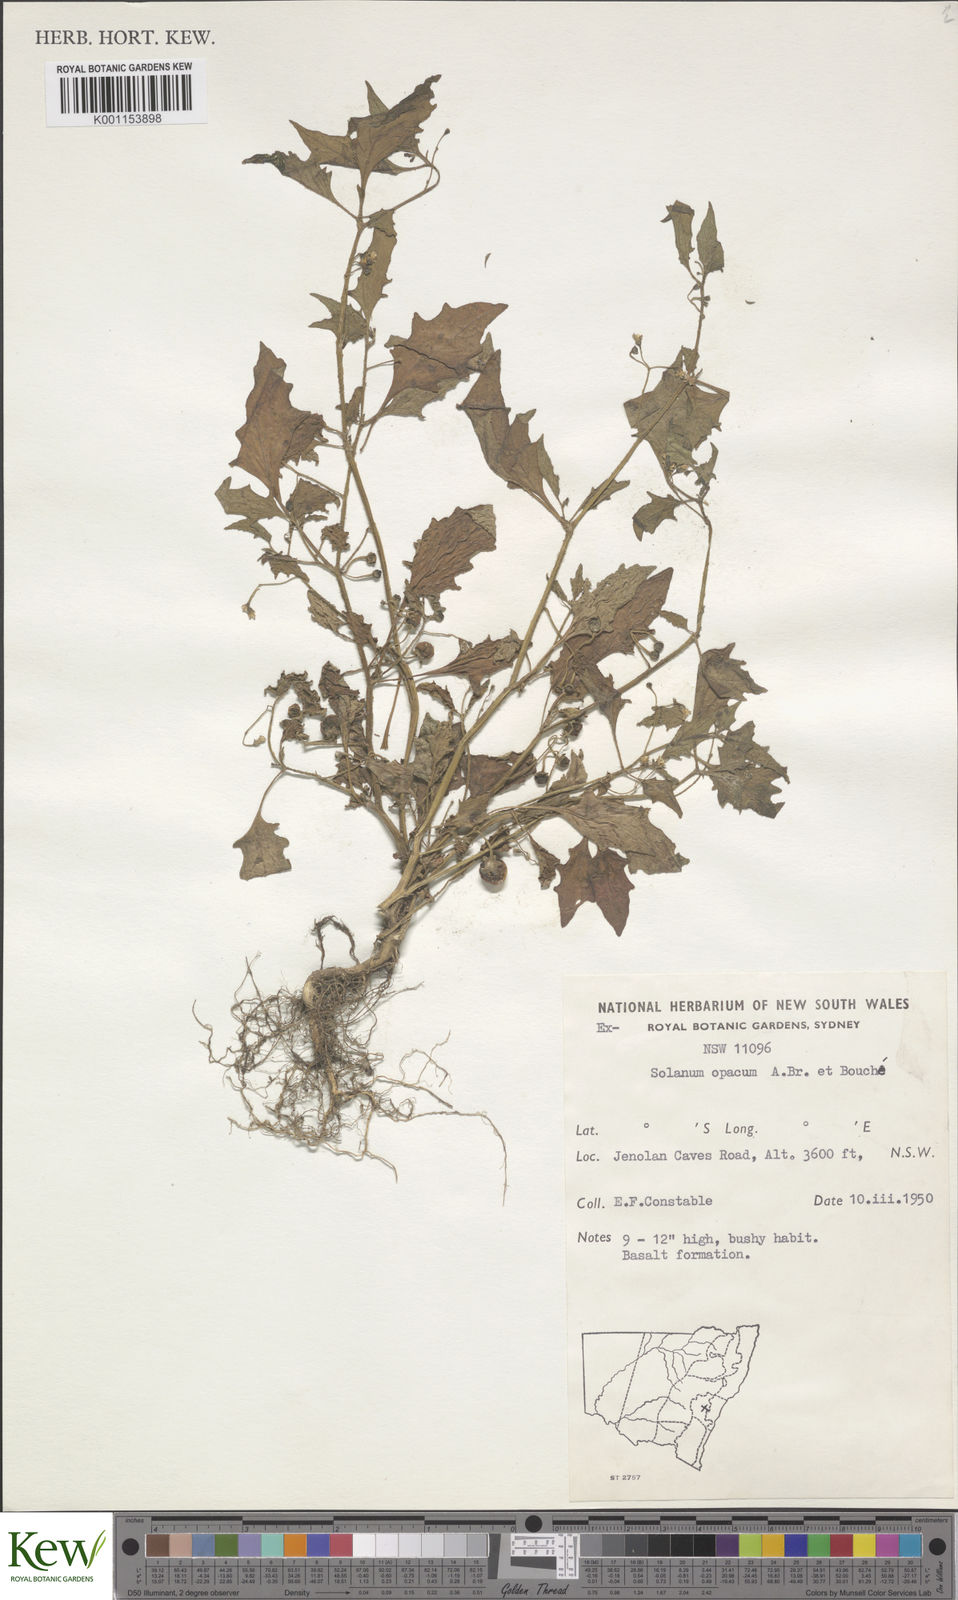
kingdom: Plantae
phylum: Tracheophyta
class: Magnoliopsida
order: Solanales
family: Solanaceae
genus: Solanum
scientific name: Solanum
